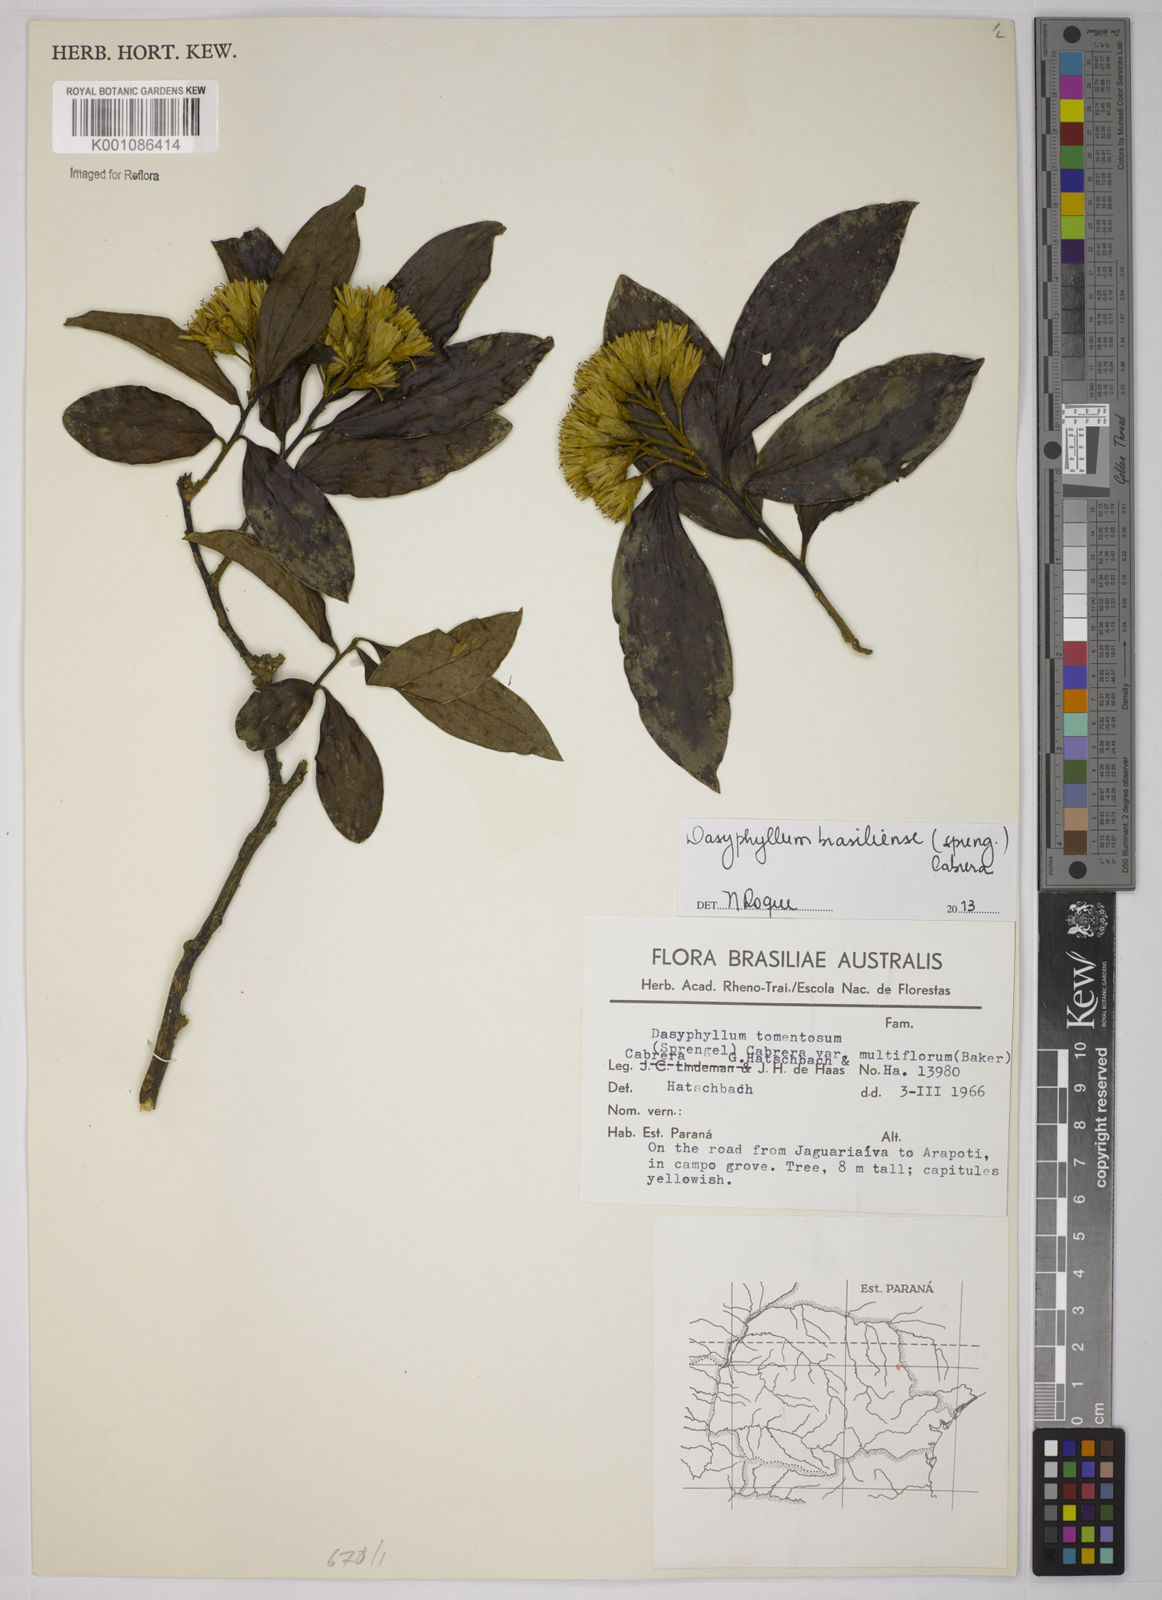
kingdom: Plantae
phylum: Tracheophyta
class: Magnoliopsida
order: Asterales
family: Asteraceae
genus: Dasyphyllum
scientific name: Dasyphyllum brasiliense
